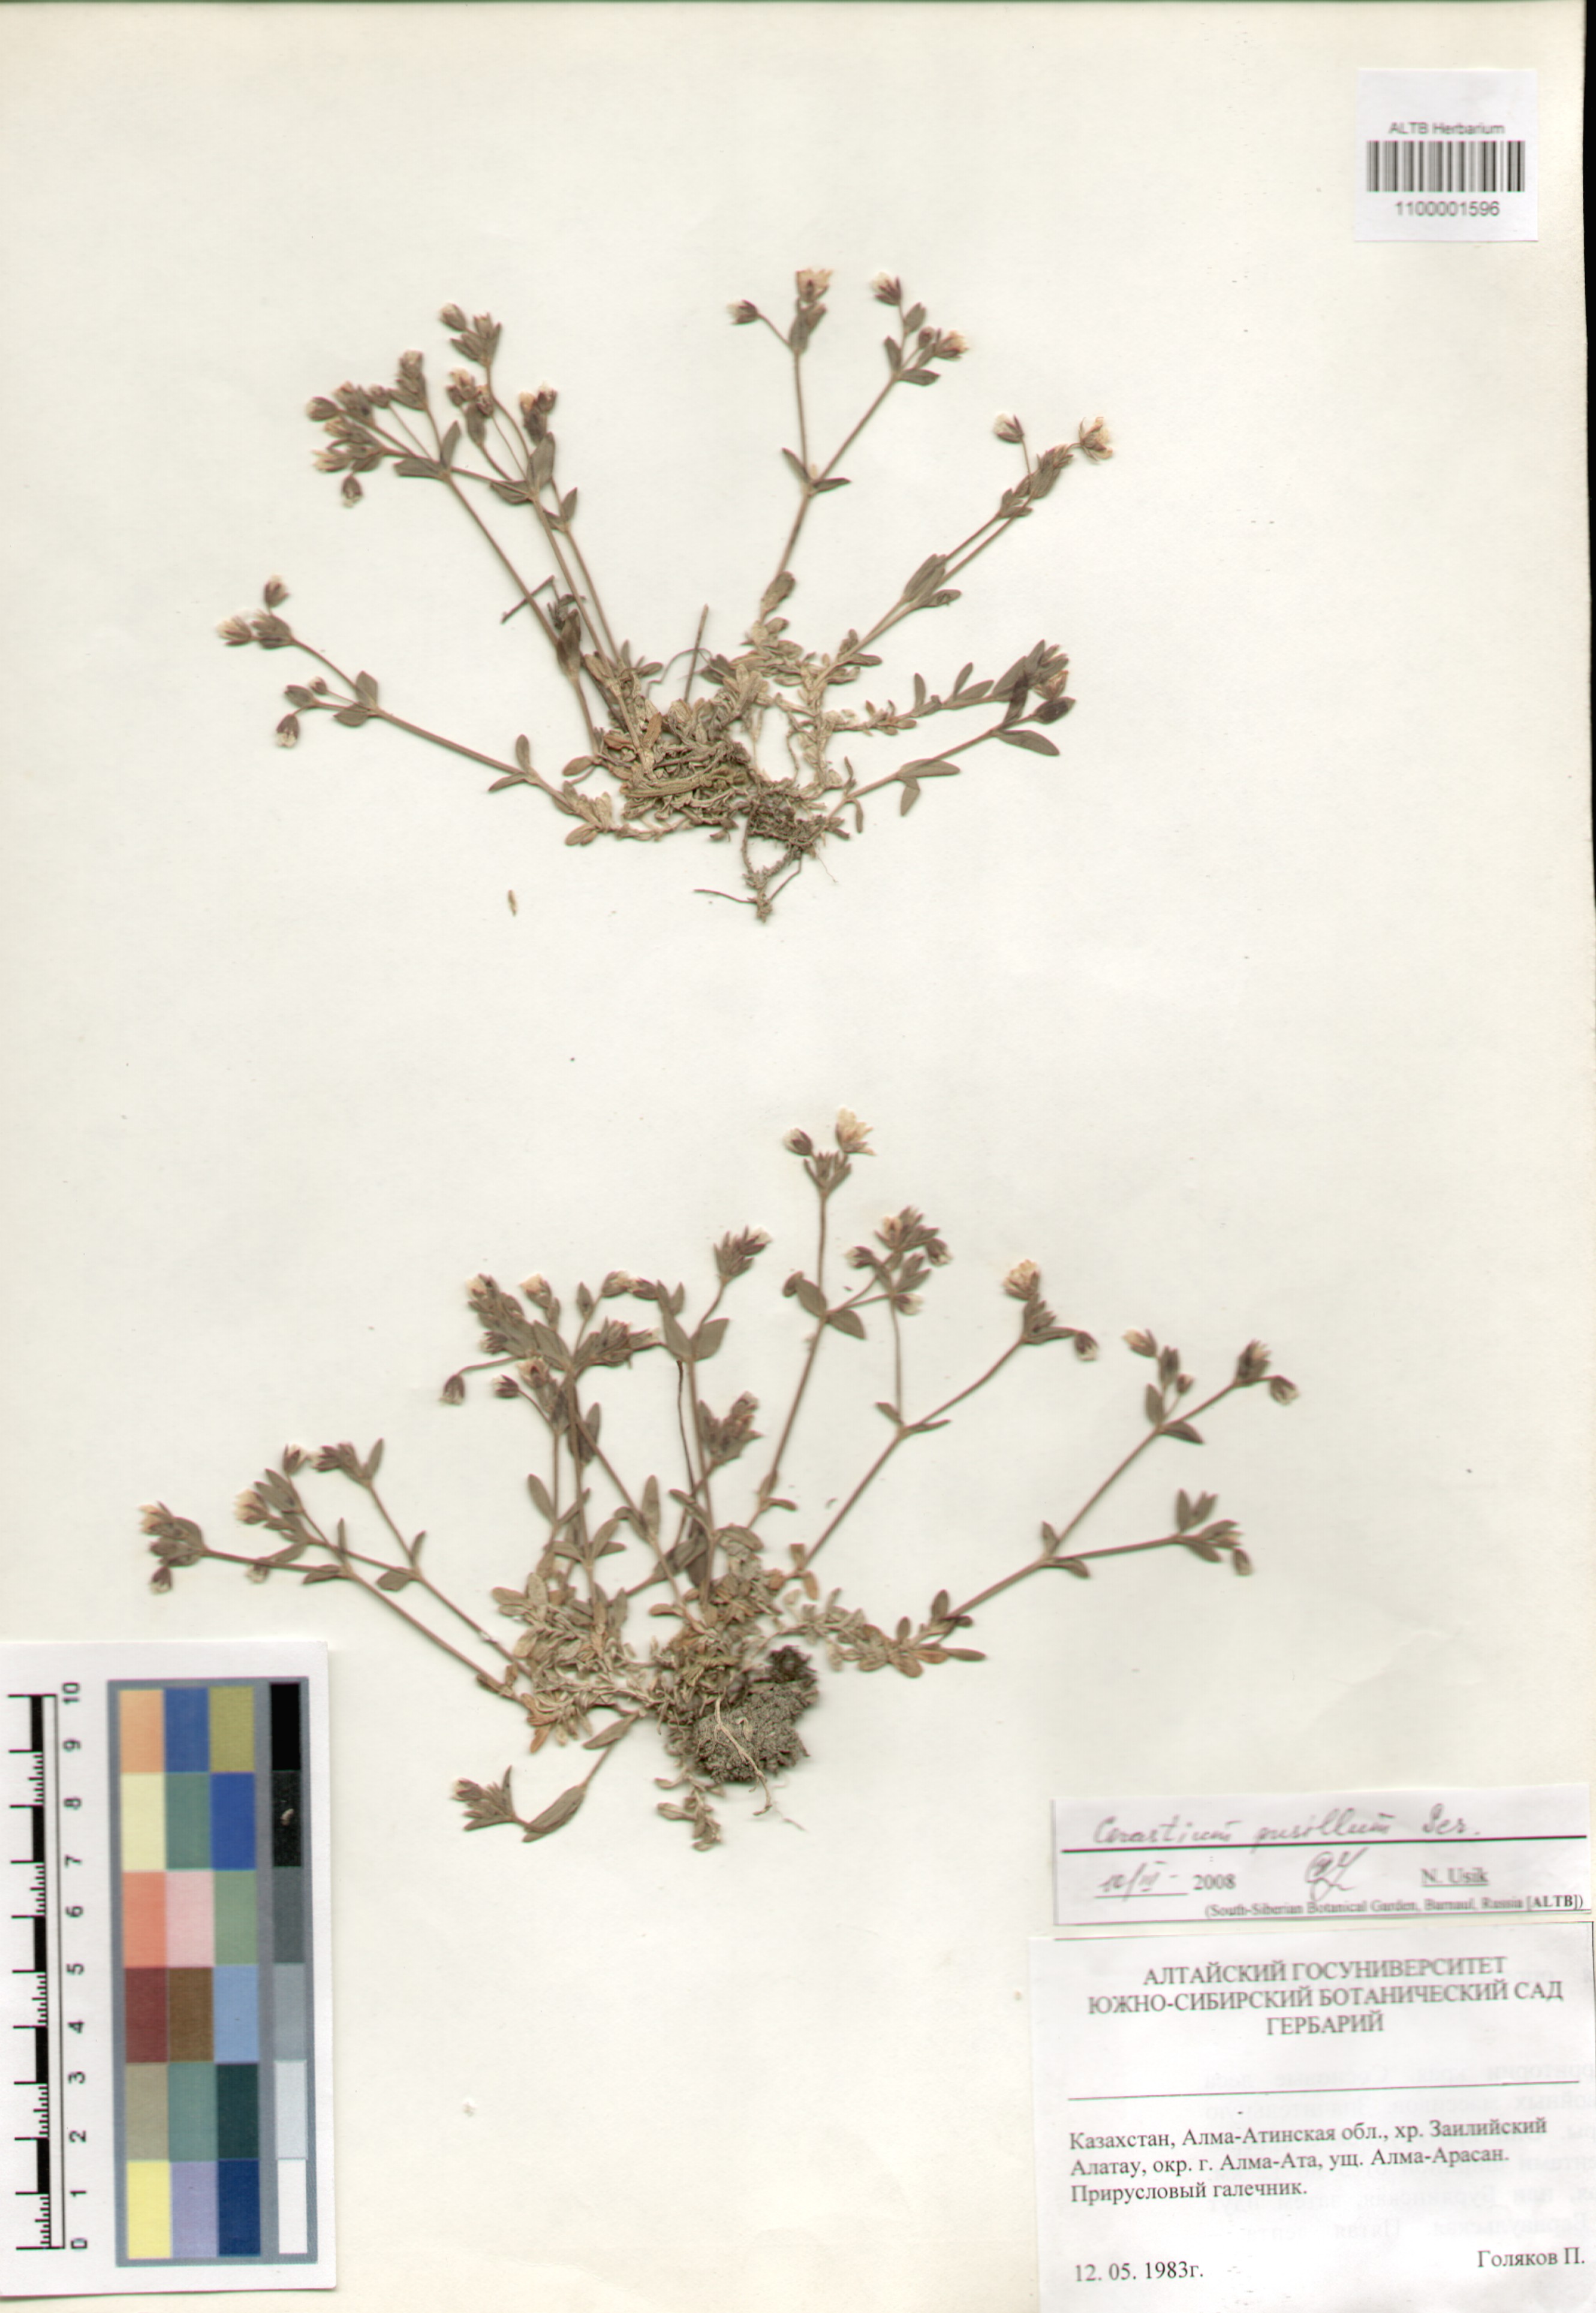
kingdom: Plantae
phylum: Tracheophyta
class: Magnoliopsida
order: Caryophyllales
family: Caryophyllaceae
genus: Cerastium
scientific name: Cerastium pusillum
